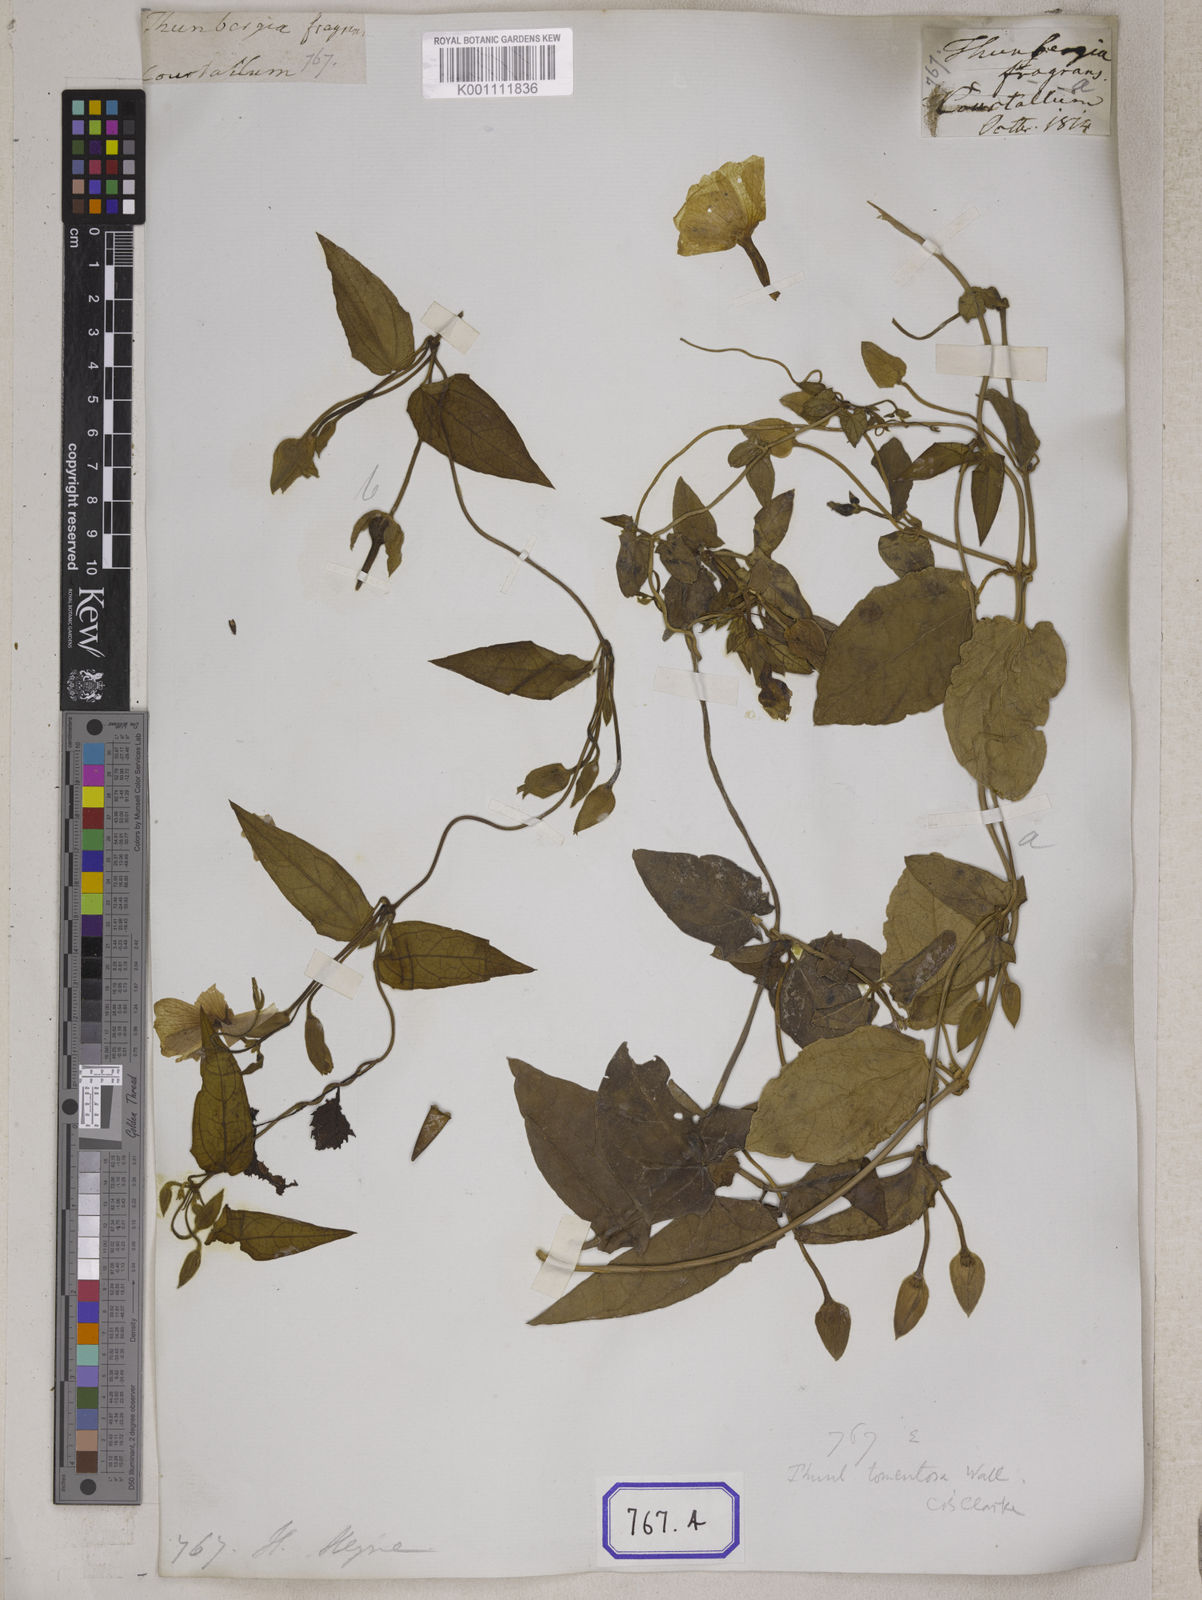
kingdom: Plantae
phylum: Tracheophyta
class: Magnoliopsida
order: Lamiales
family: Acanthaceae
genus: Thunbergia
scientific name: Thunbergia fragrans
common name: Whitelady
